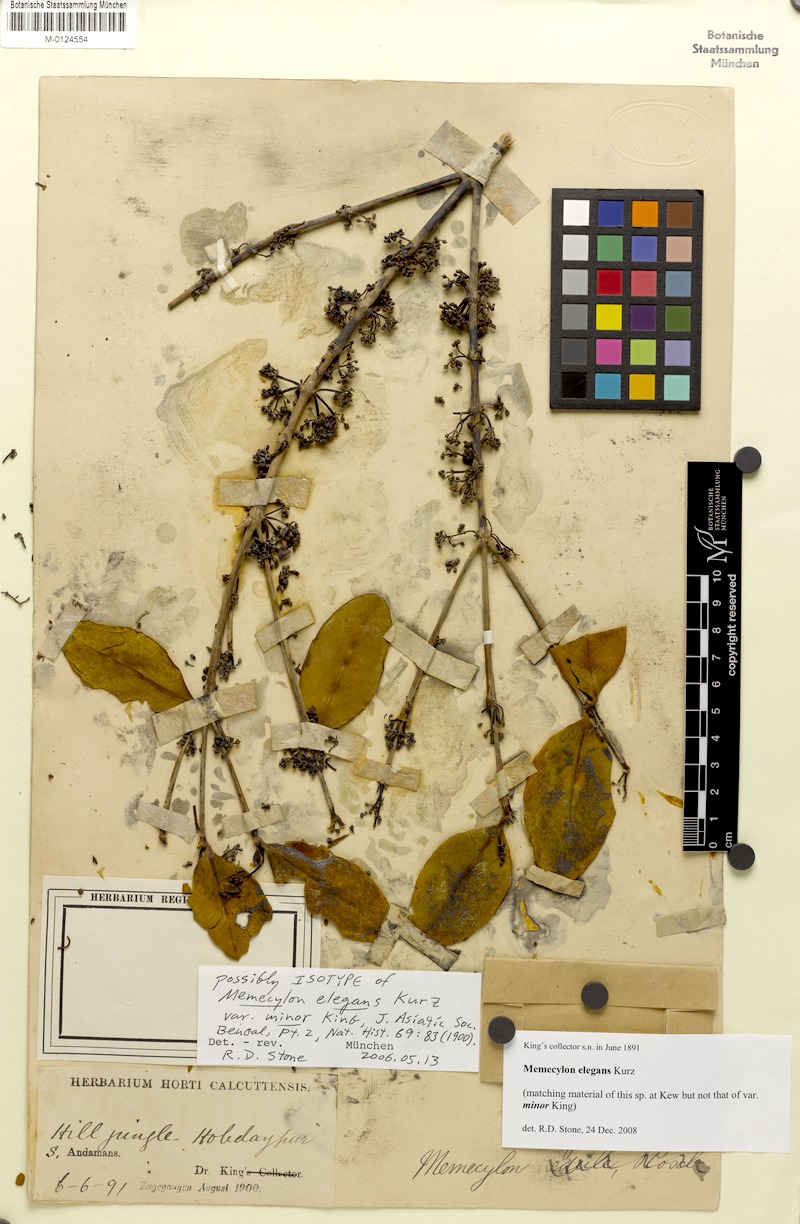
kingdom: Plantae
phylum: Tracheophyta
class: Magnoliopsida
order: Myrtales
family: Melastomataceae
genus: Memecylon
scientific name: Memecylon elegans
